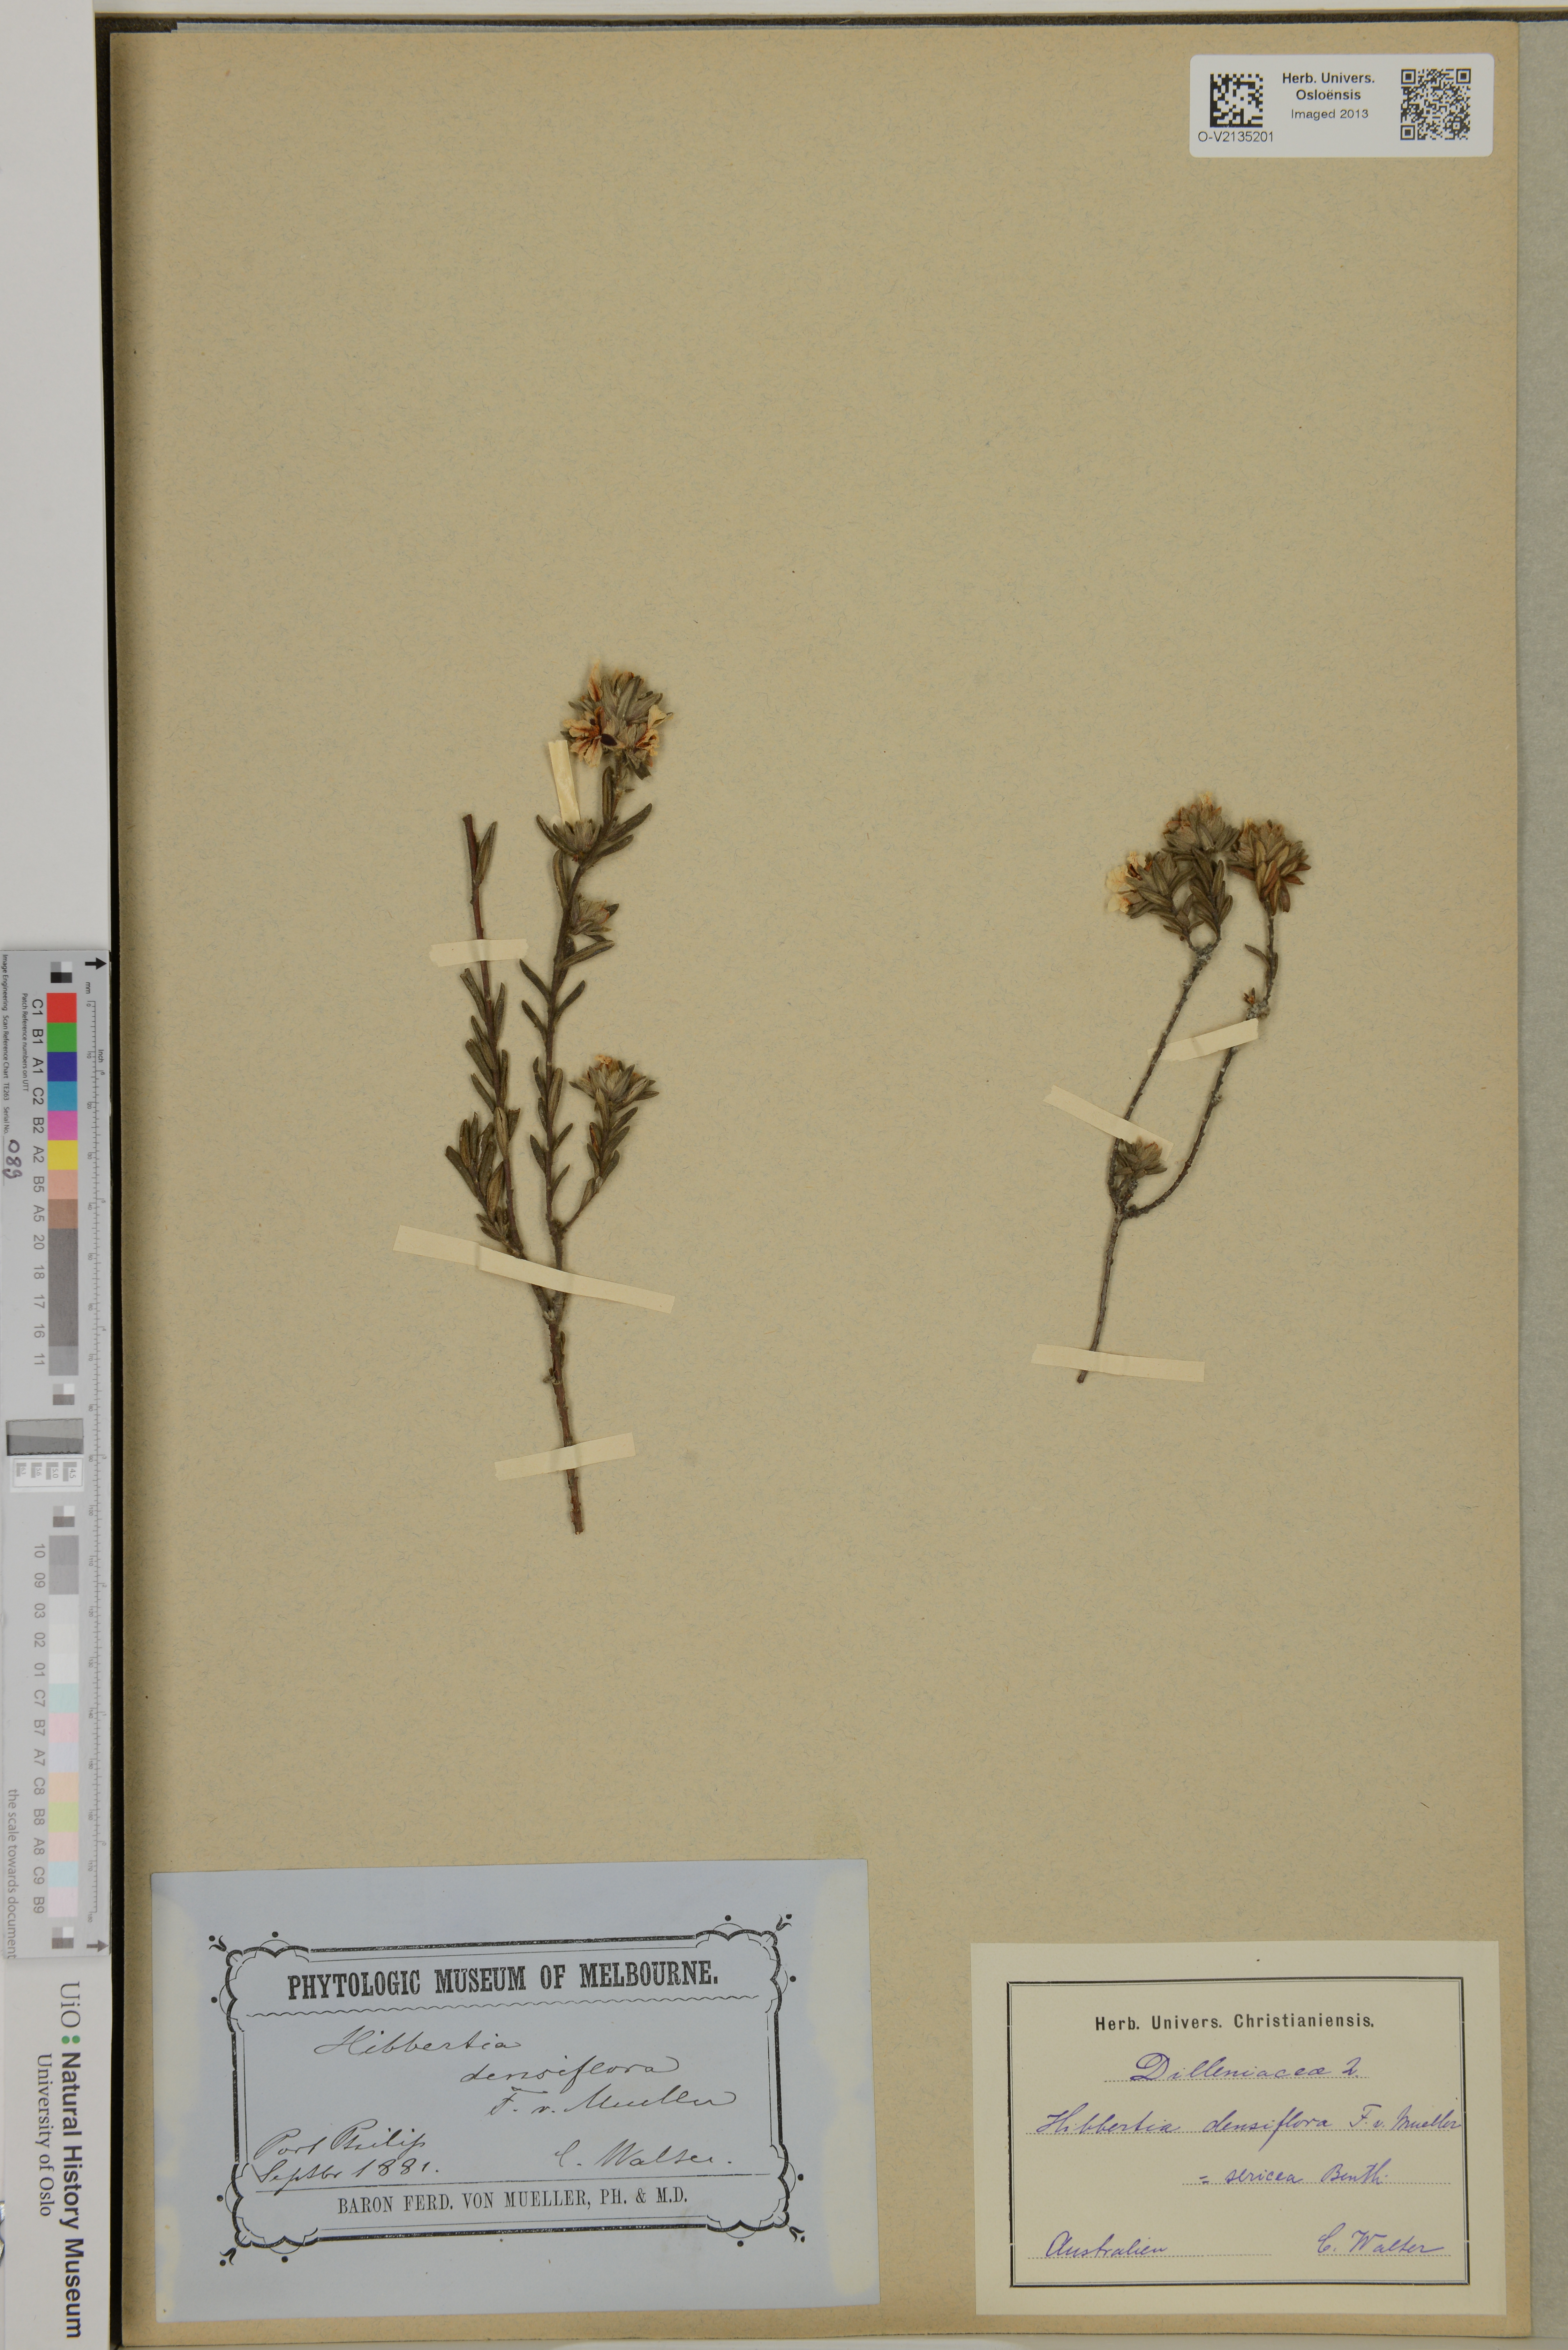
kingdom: Plantae
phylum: Tracheophyta
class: Magnoliopsida
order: Dilleniales
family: Dilleniaceae
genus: Hibbertia
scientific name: Hibbertia sericea
